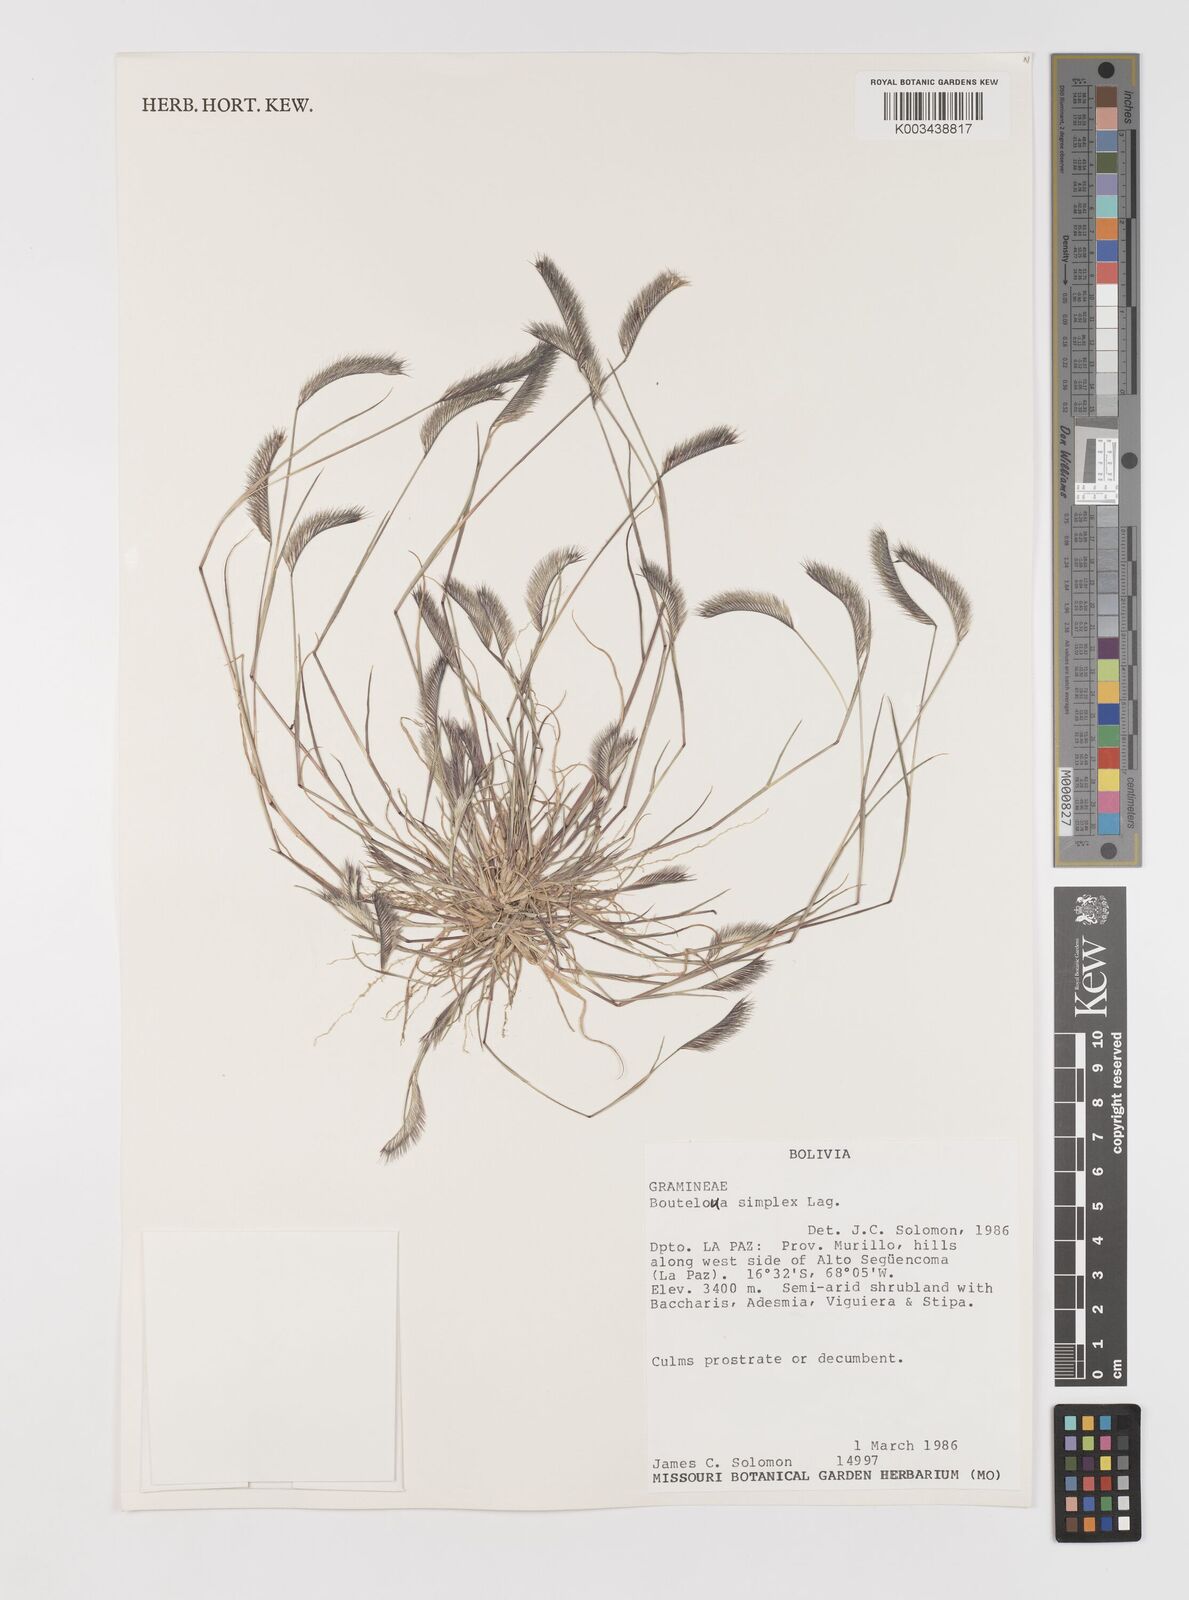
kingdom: Plantae
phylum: Tracheophyta
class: Liliopsida
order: Poales
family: Poaceae
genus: Bouteloua
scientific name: Bouteloua simplex
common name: Mat grama
